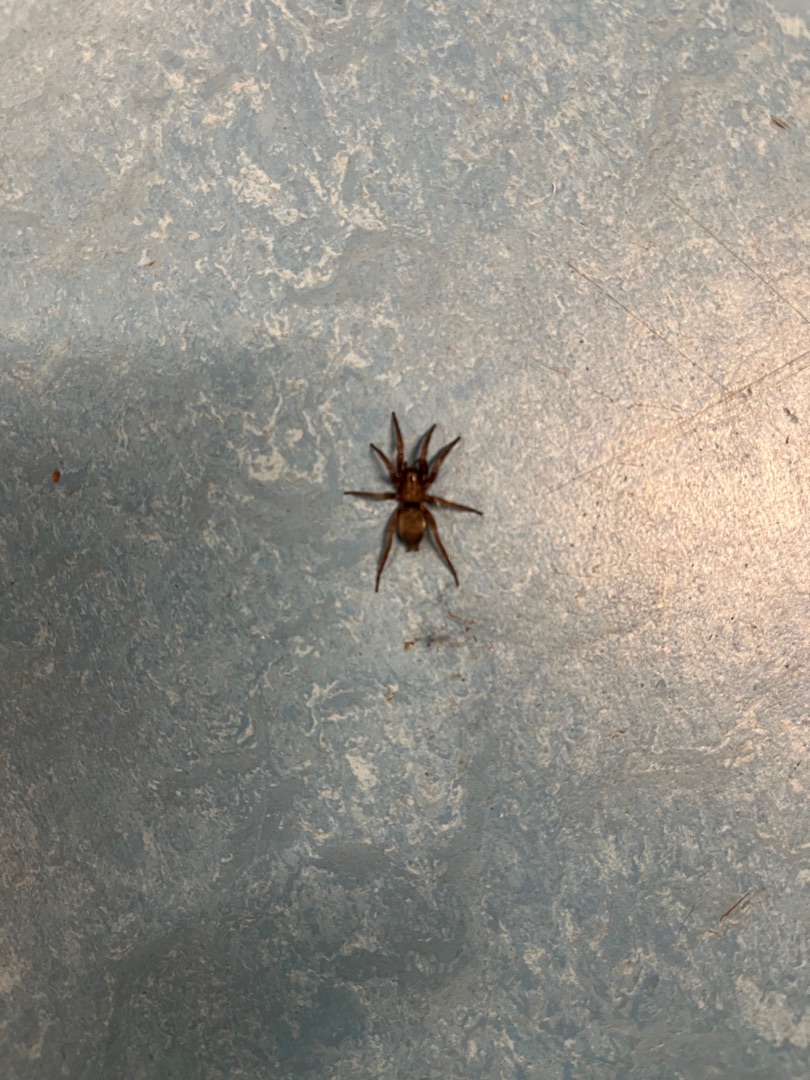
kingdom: Animalia
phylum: Arthropoda
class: Arachnida
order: Araneae
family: Gnaphosidae
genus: Scotophaeus
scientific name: Scotophaeus
